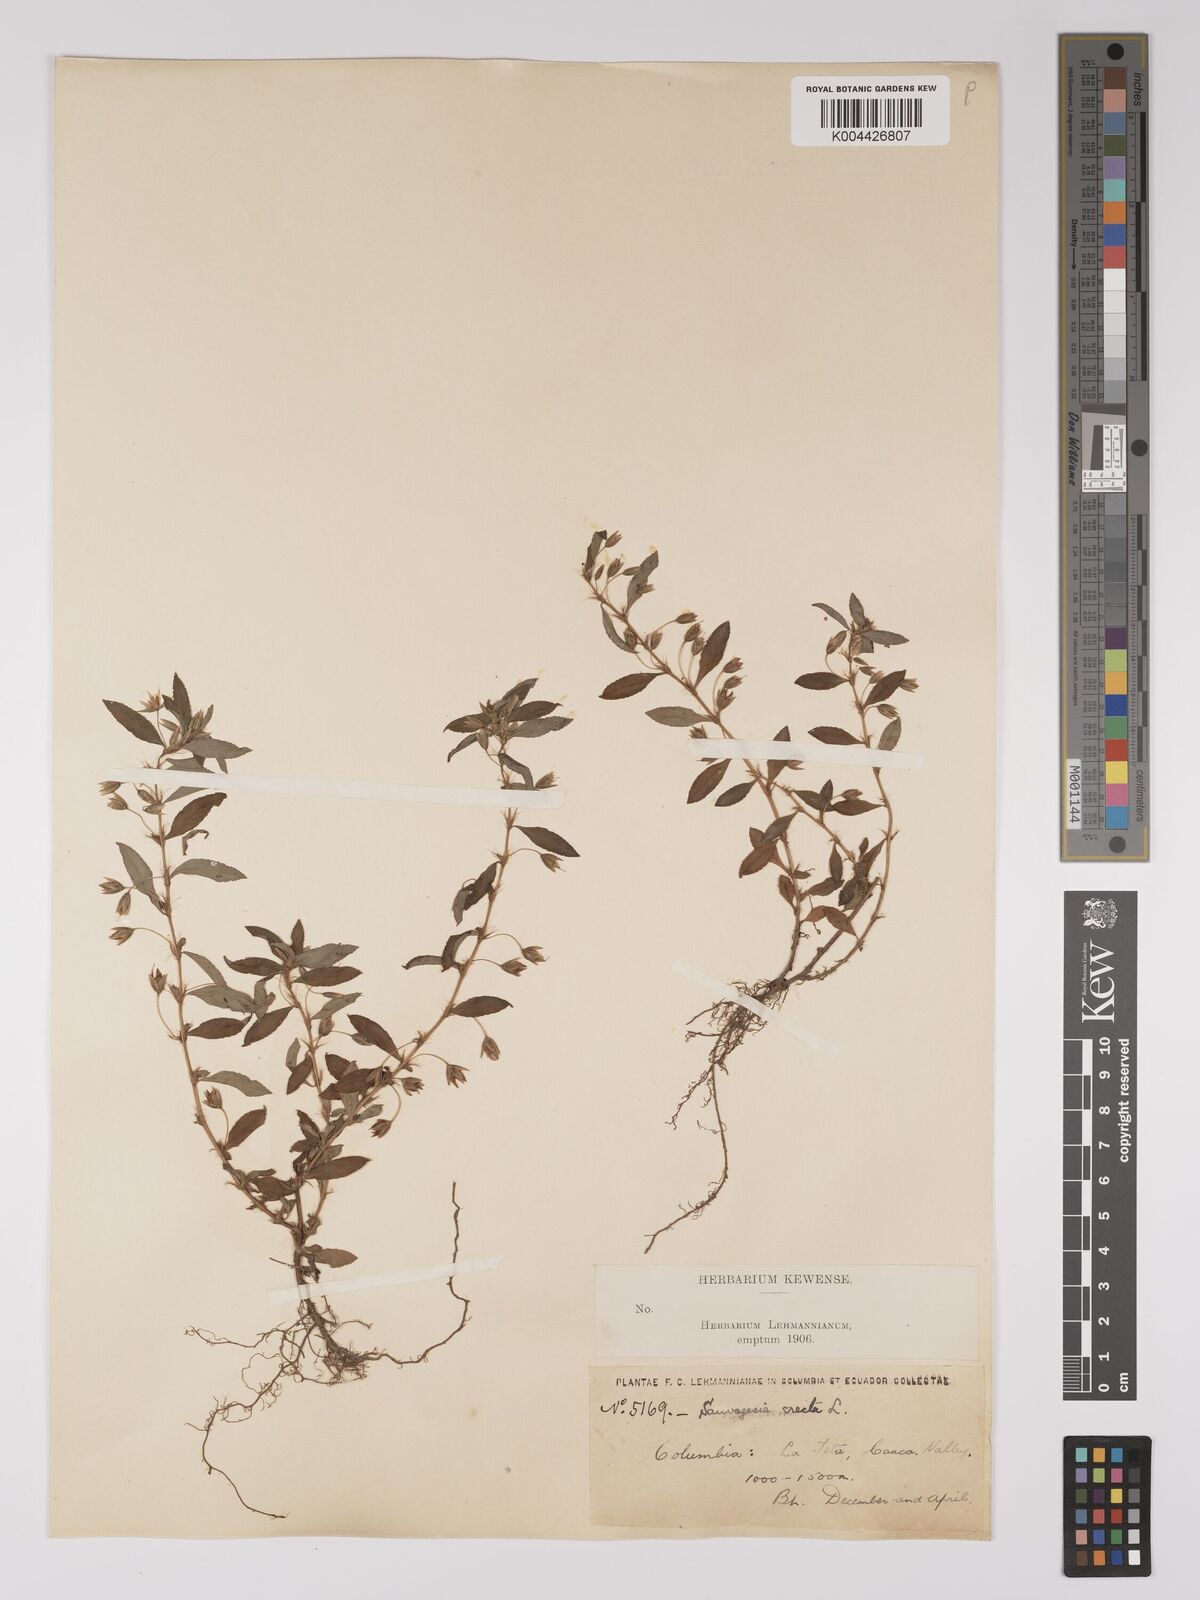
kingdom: Plantae
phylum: Tracheophyta
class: Magnoliopsida
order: Malpighiales
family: Ochnaceae
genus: Sauvagesia
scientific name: Sauvagesia erecta
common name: Creole tea
